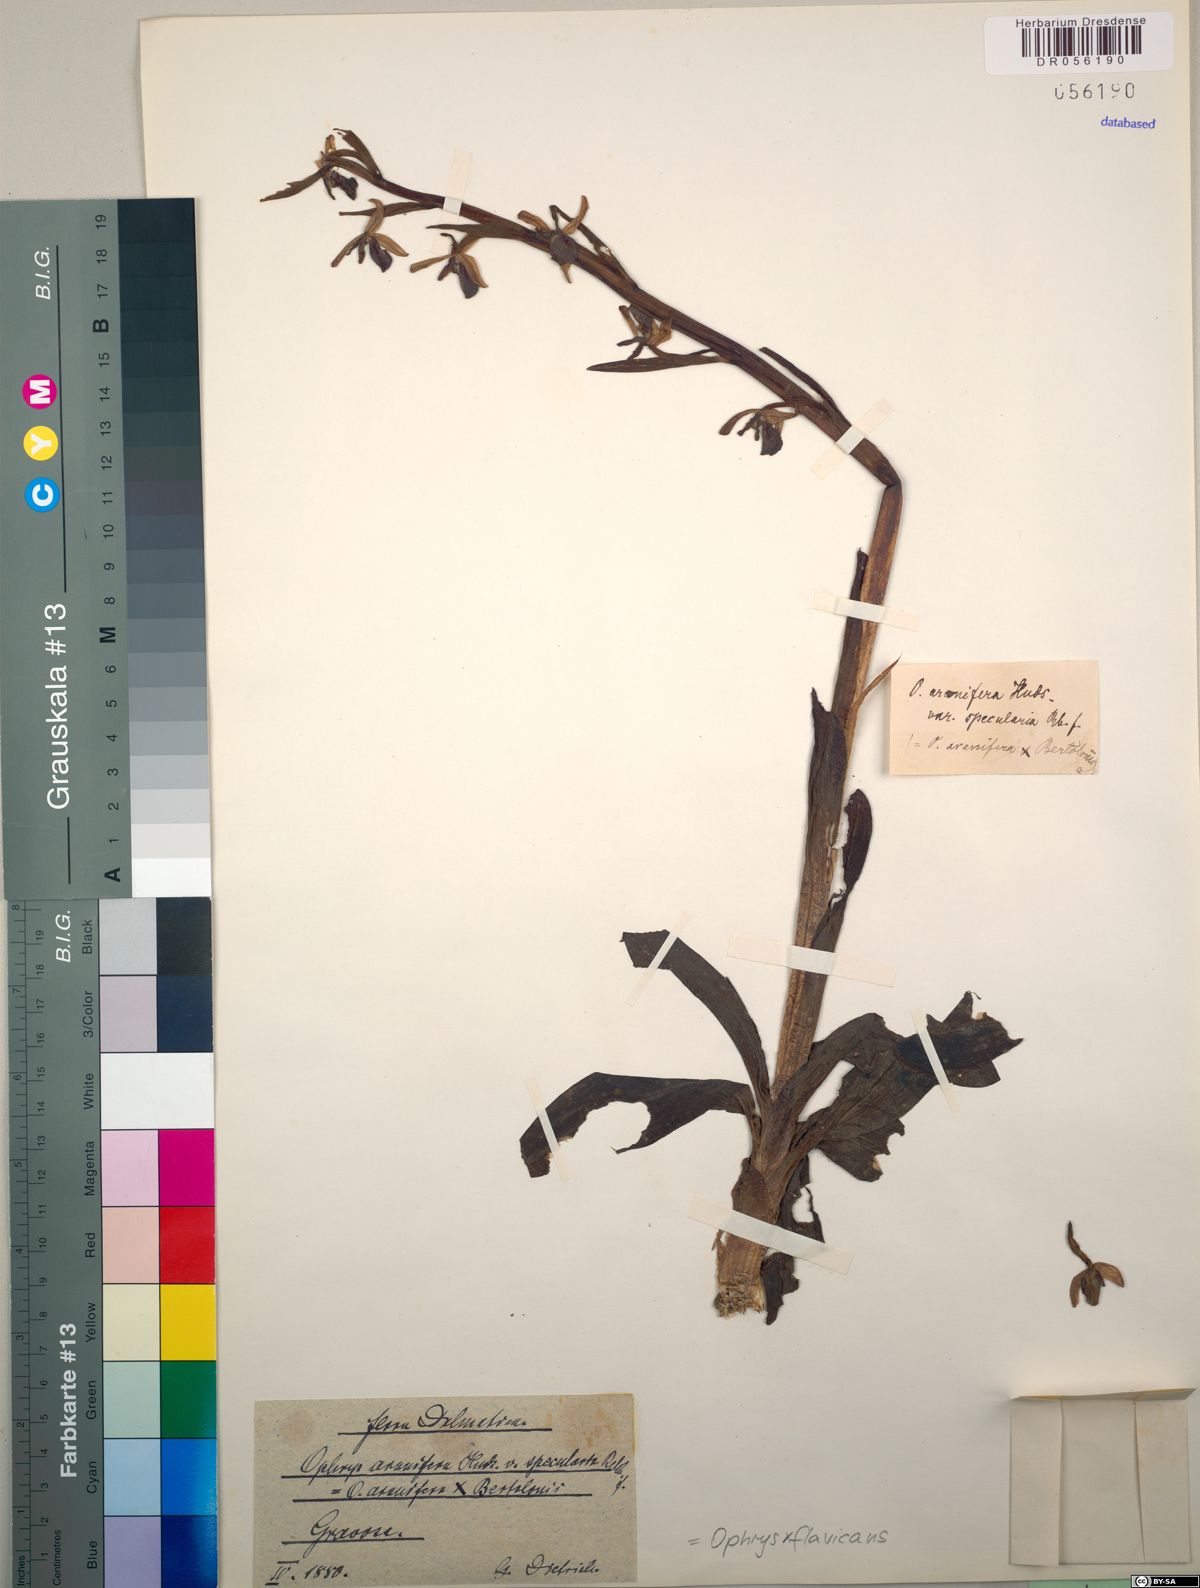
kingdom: Plantae
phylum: Tracheophyta
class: Liliopsida
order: Asparagales
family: Orchidaceae
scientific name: Orchidaceae
